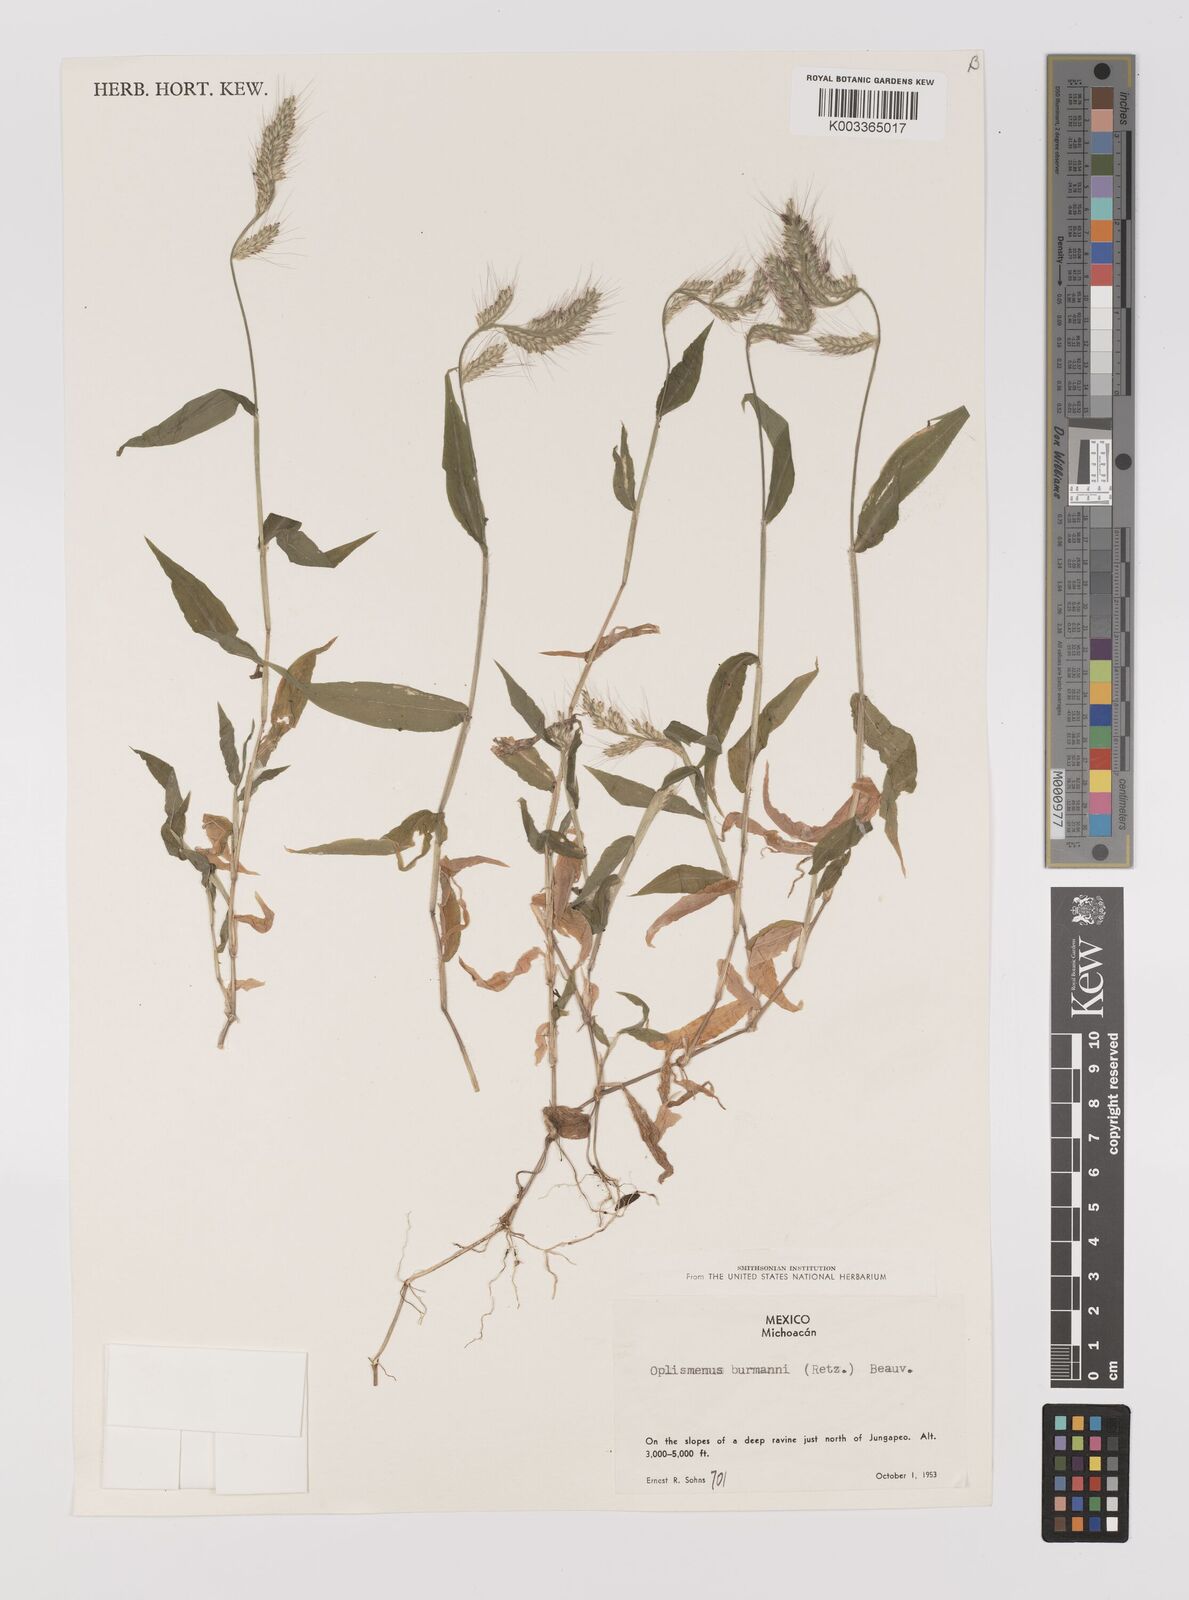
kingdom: Plantae
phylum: Tracheophyta
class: Liliopsida
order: Poales
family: Poaceae
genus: Oplismenus
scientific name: Oplismenus burmanni
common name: Burmann's basketgrass
